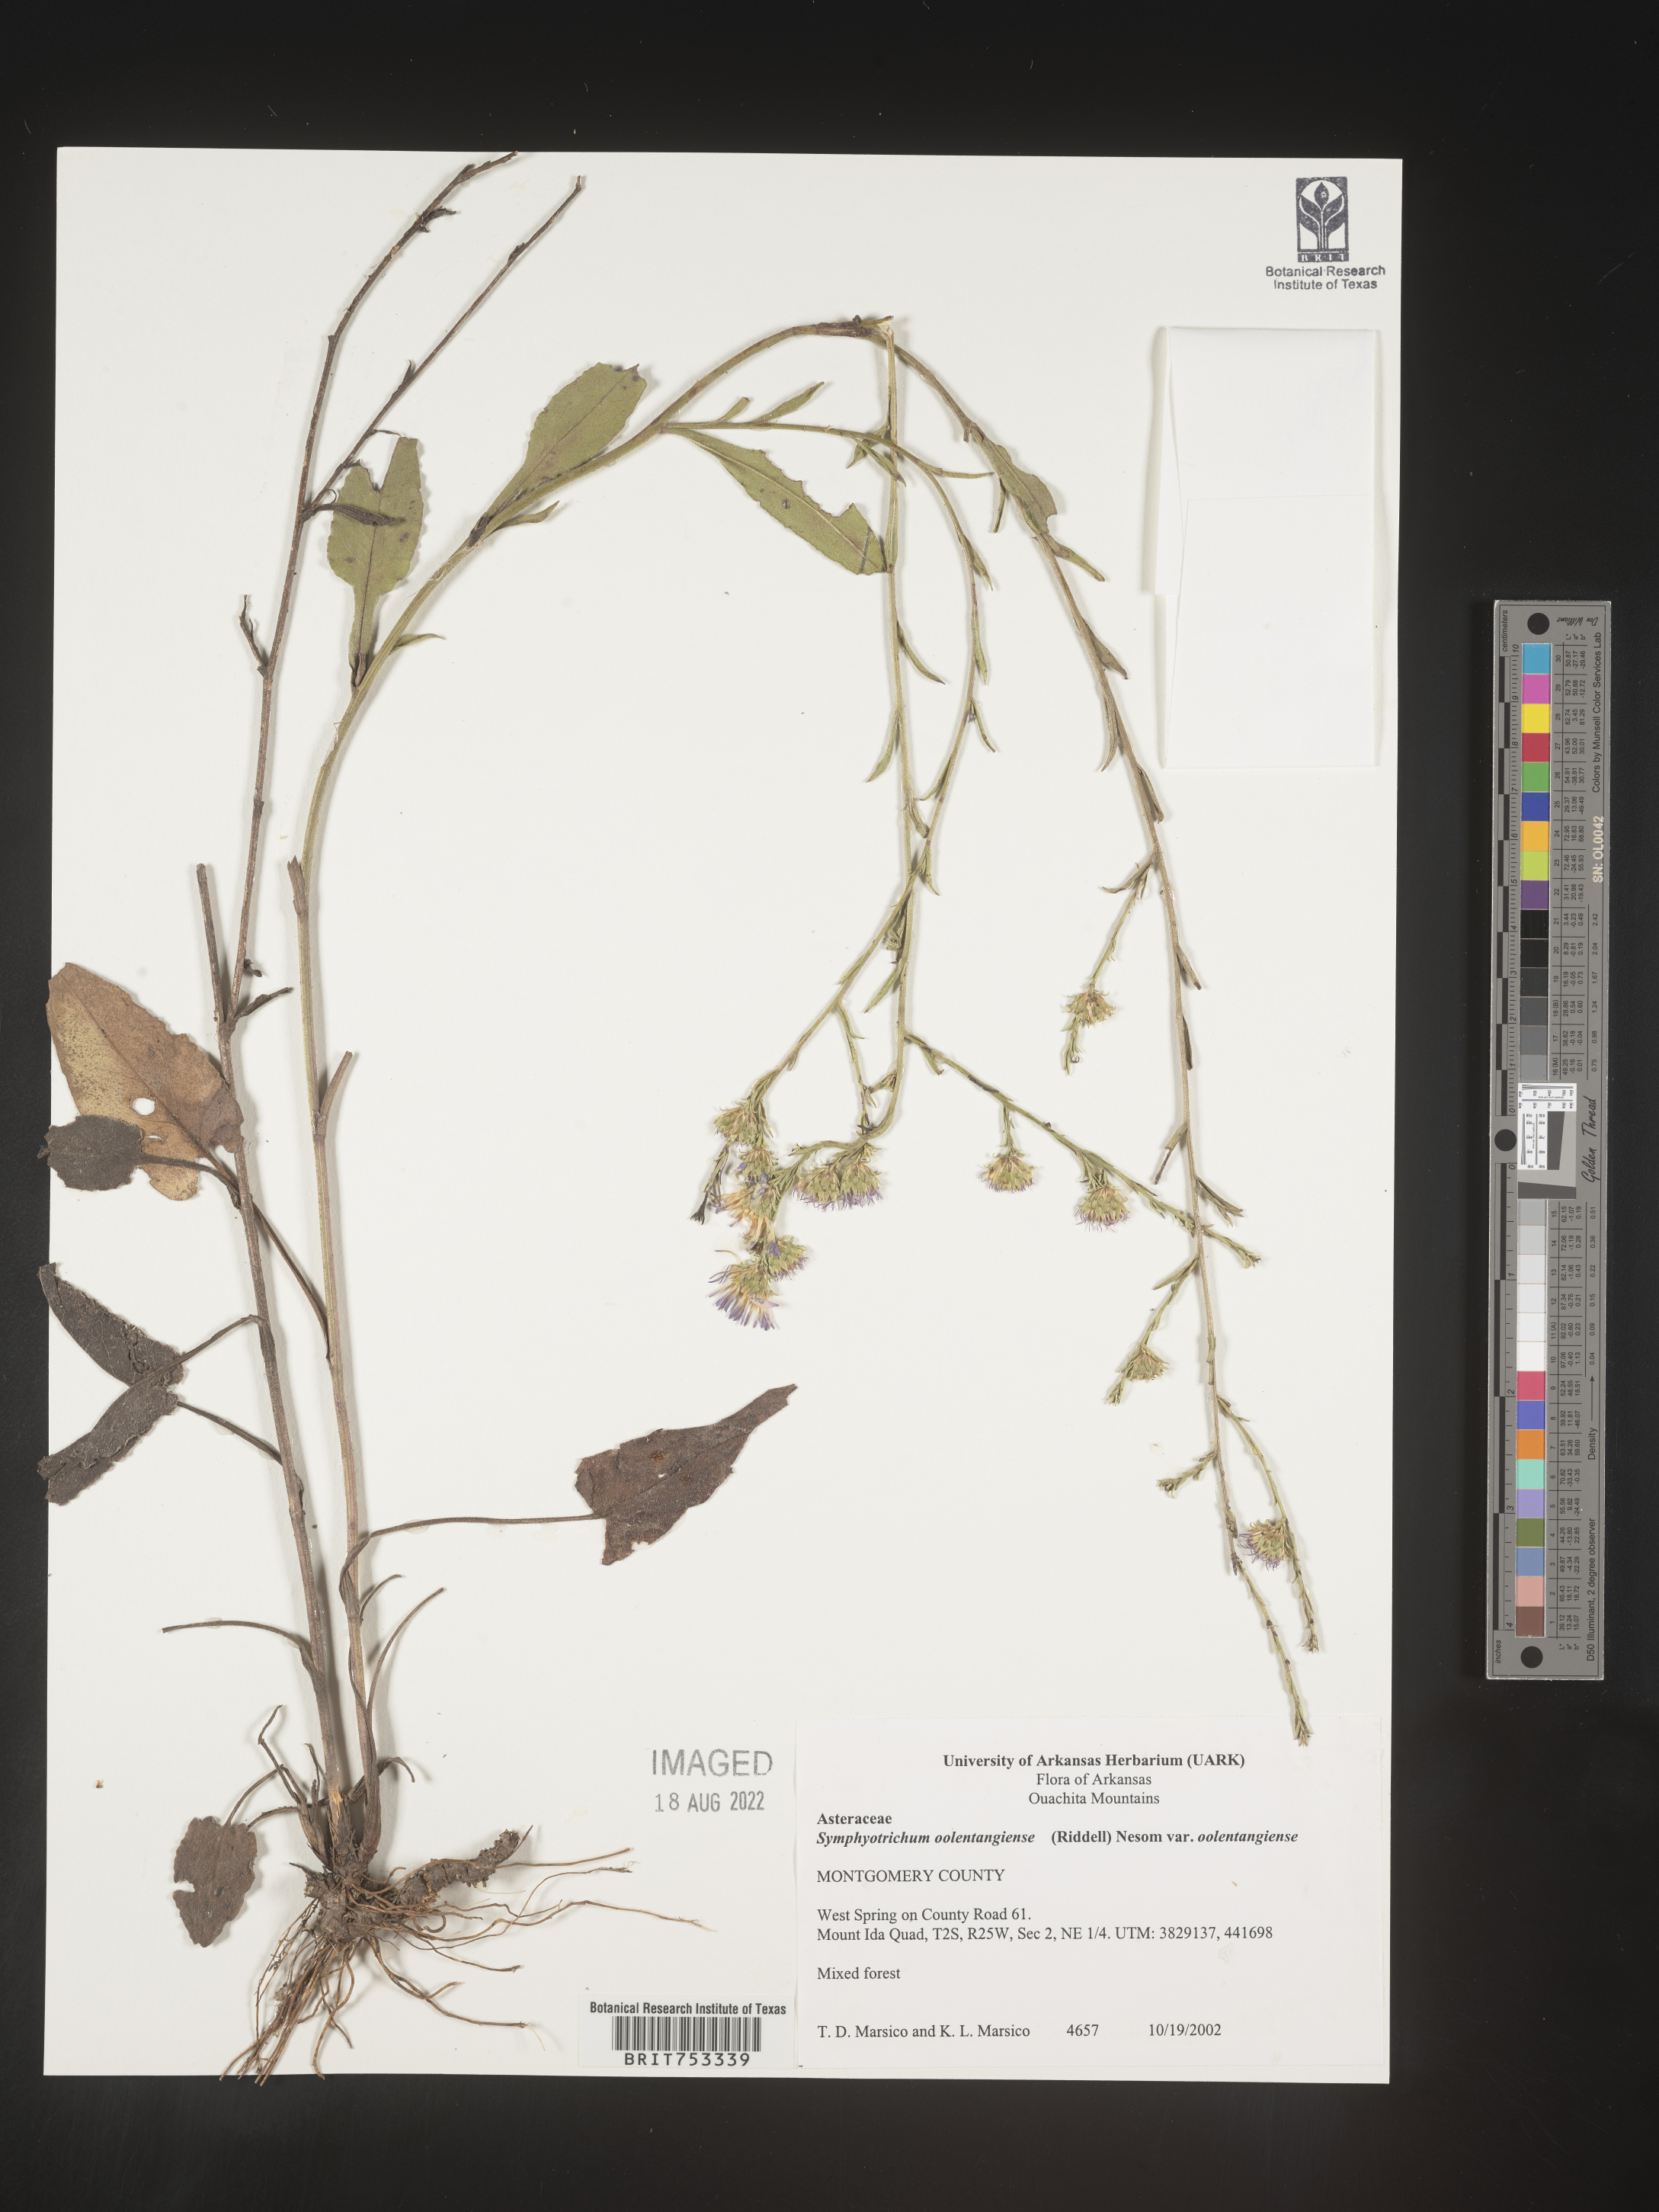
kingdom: Plantae
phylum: Tracheophyta
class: Magnoliopsida
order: Asterales
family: Asteraceae
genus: Symphyotrichum
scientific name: Symphyotrichum oolentangiense
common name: Azure aster
